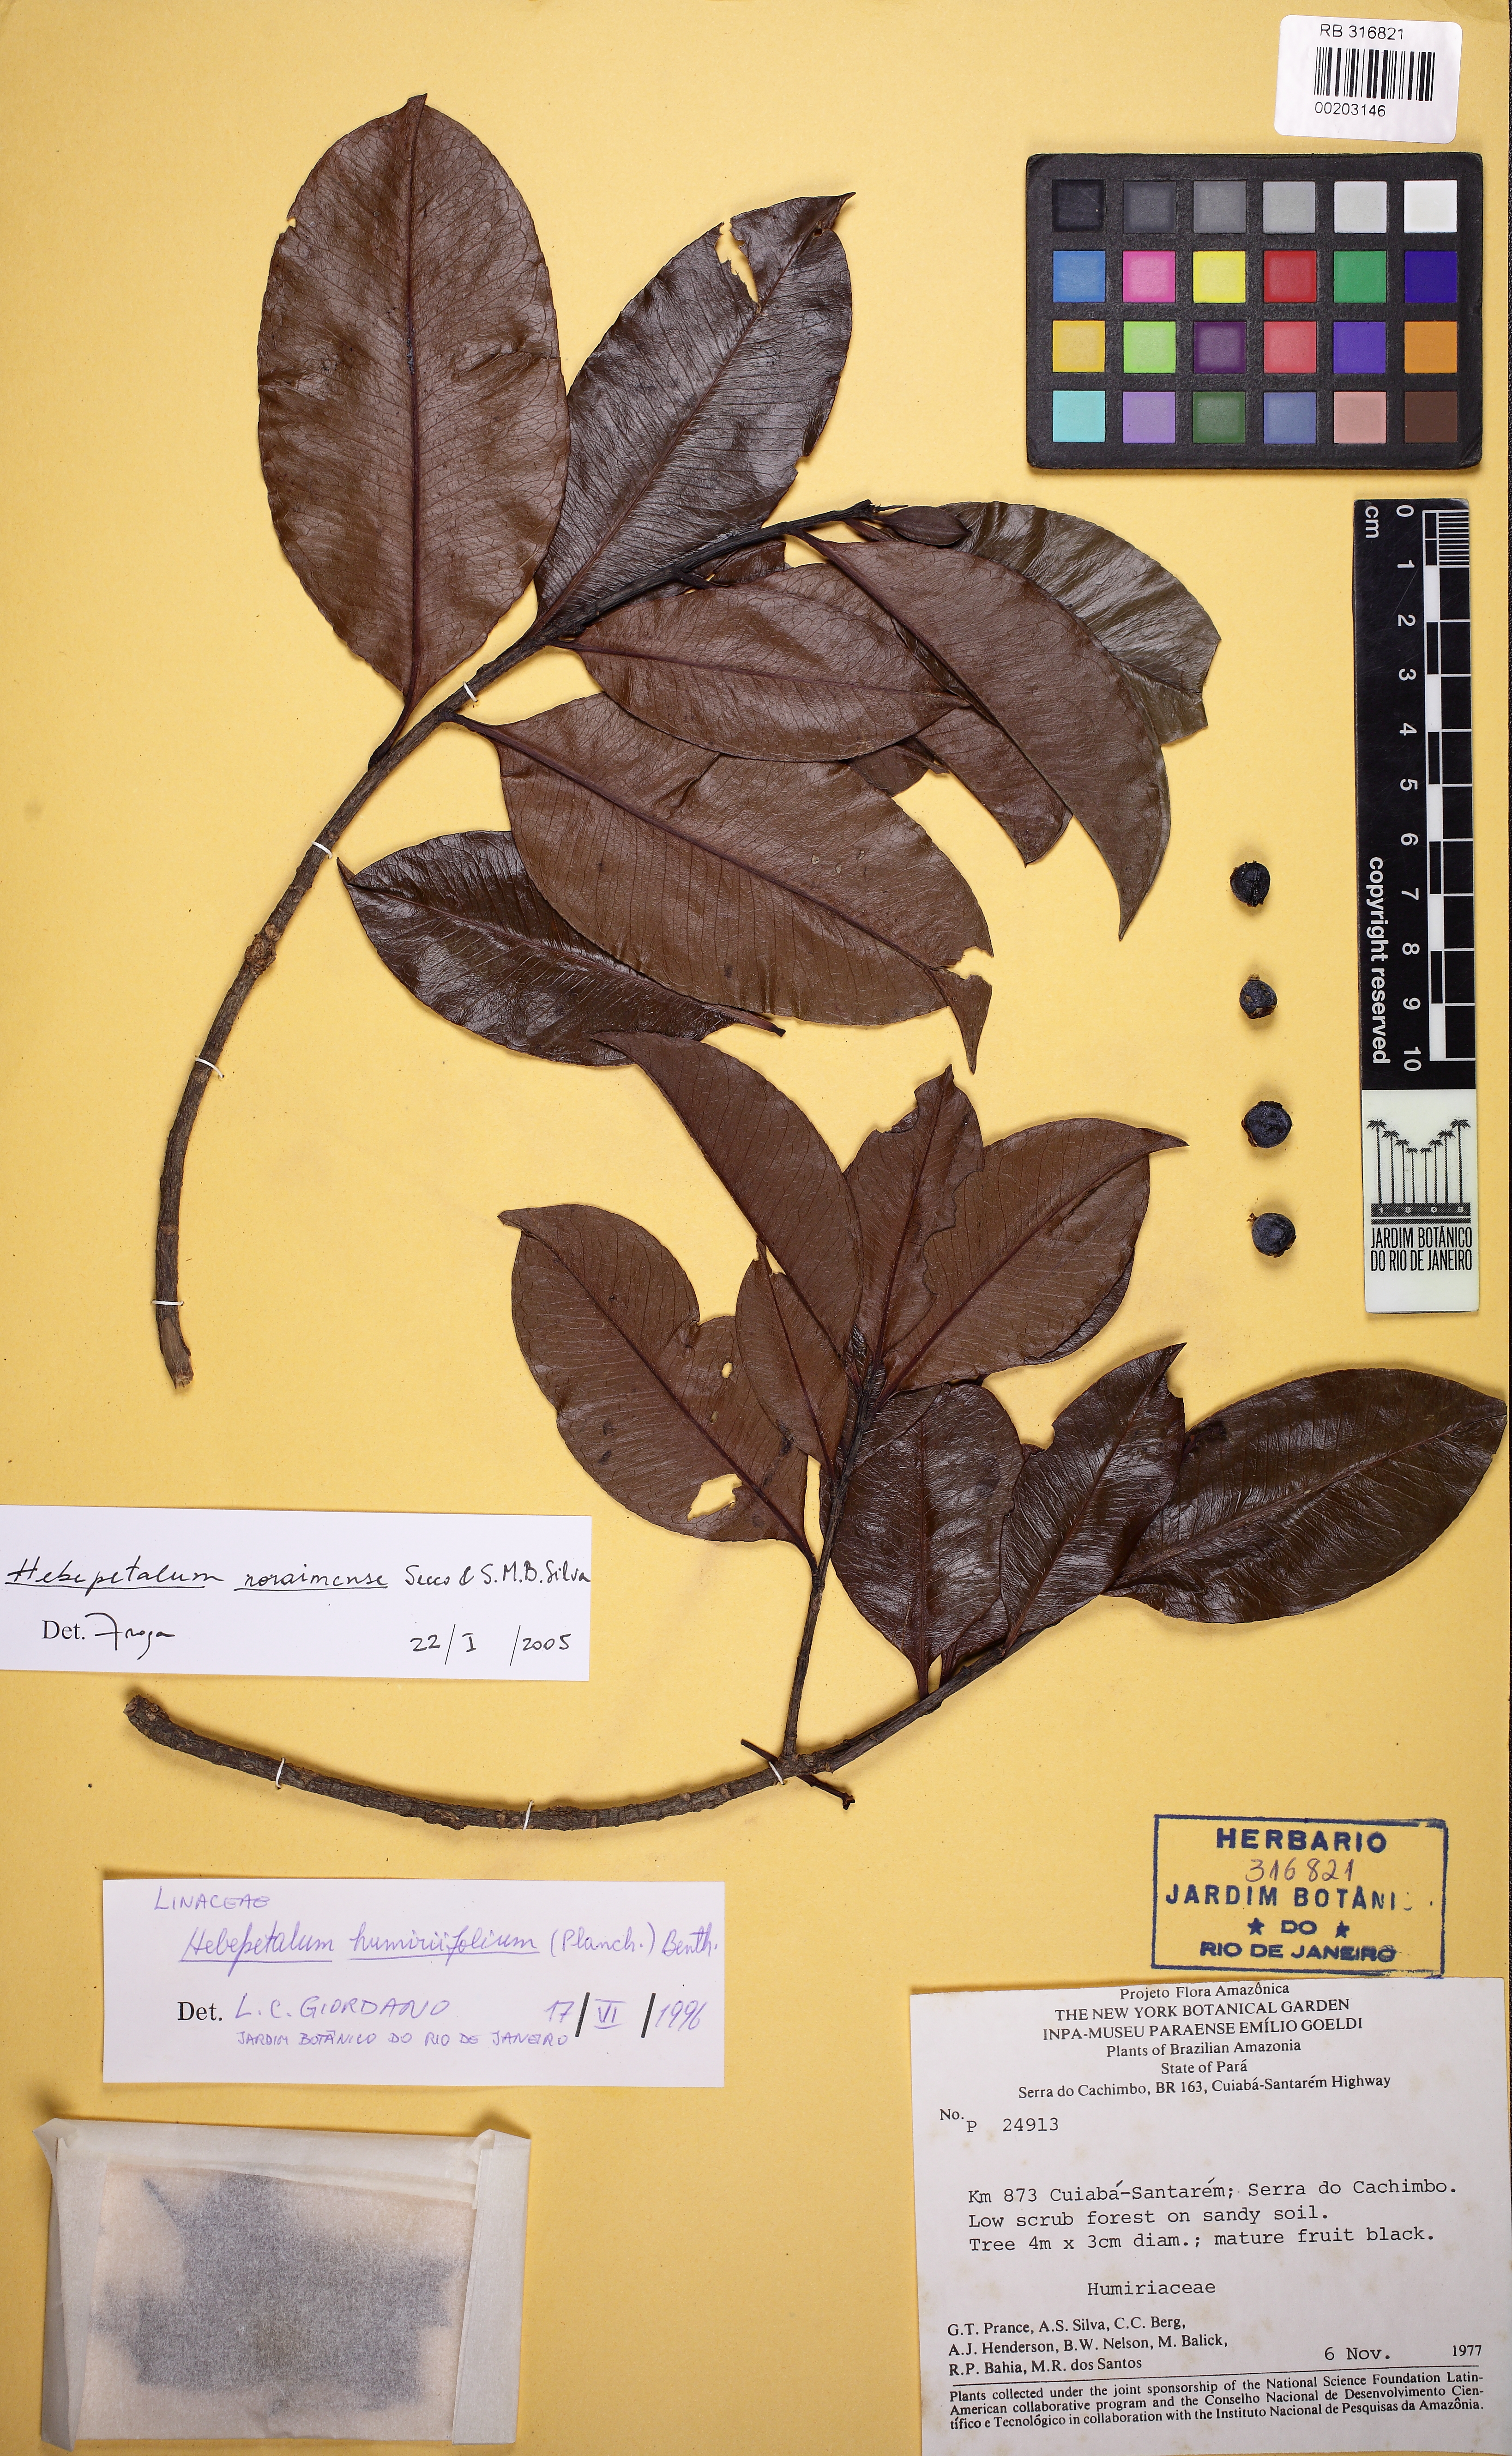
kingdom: Plantae
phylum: Tracheophyta
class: Magnoliopsida
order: Malpighiales
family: Linaceae
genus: Hebepetalum
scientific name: Hebepetalum roraimense
